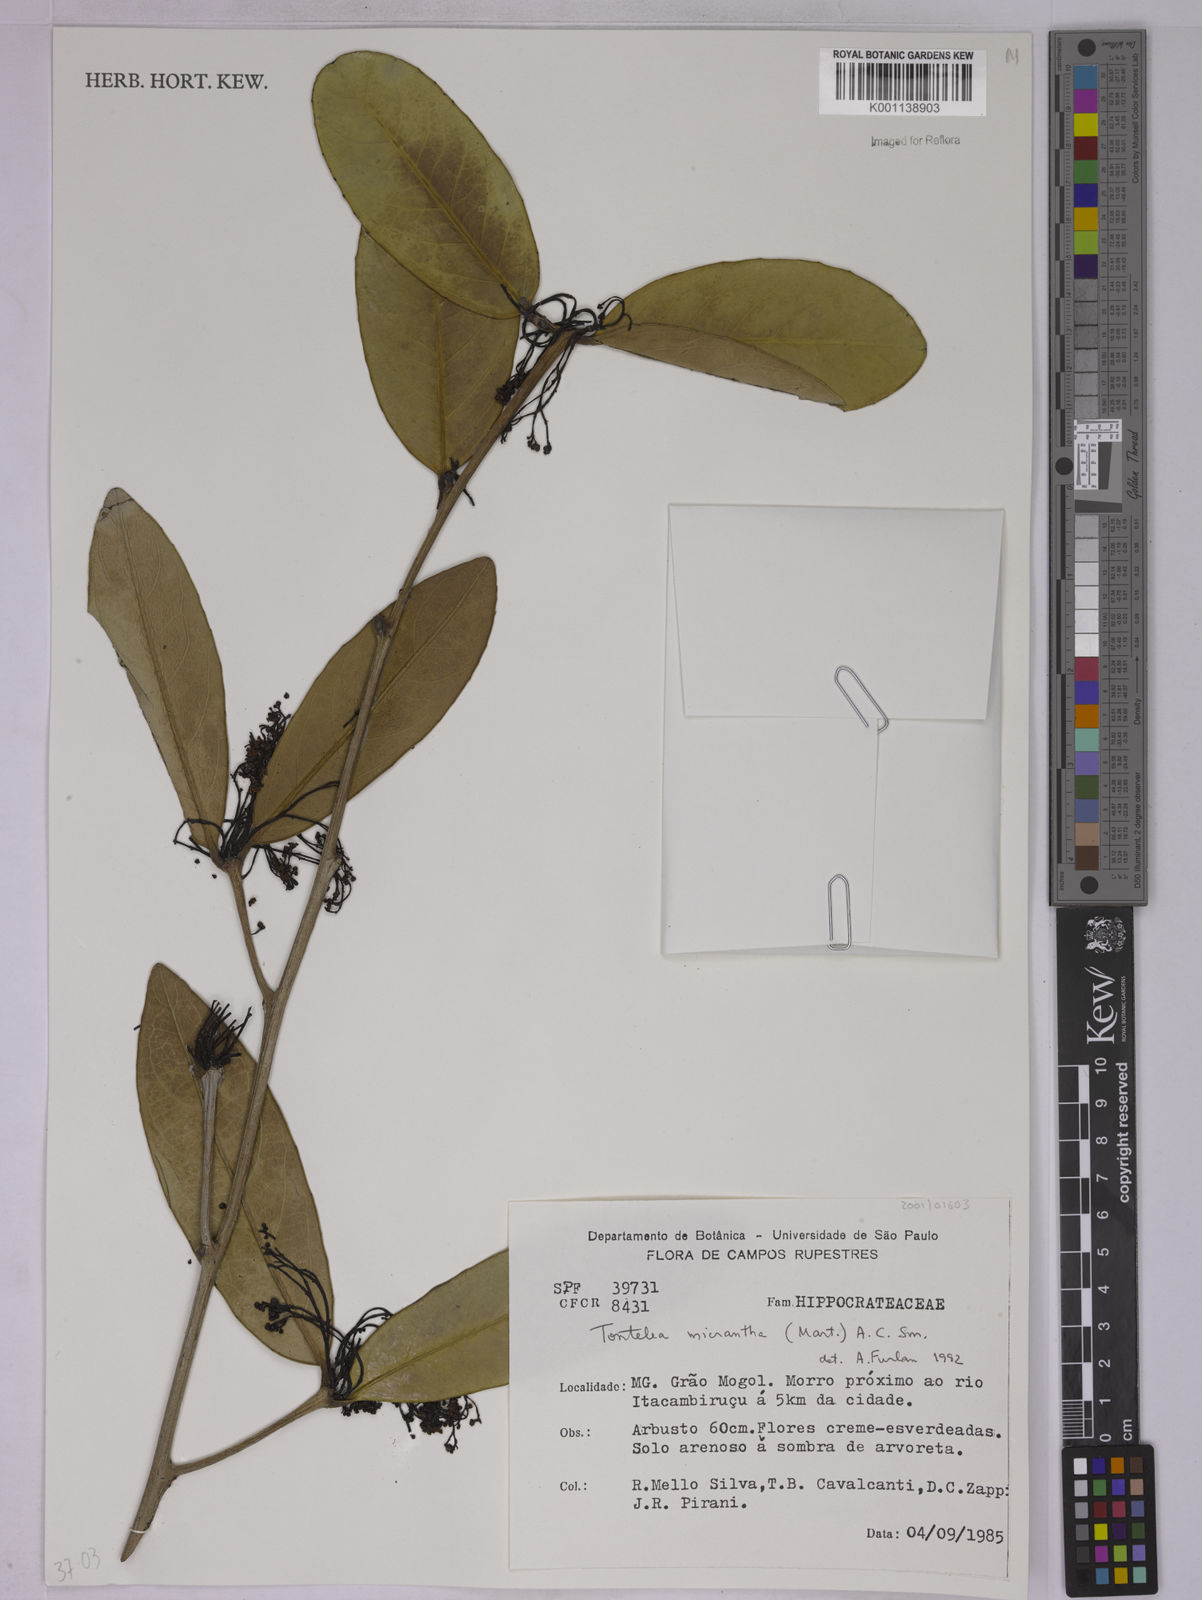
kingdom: Plantae
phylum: Tracheophyta
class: Magnoliopsida
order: Celastrales
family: Celastraceae
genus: Tontelea
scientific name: Tontelea micrantha
